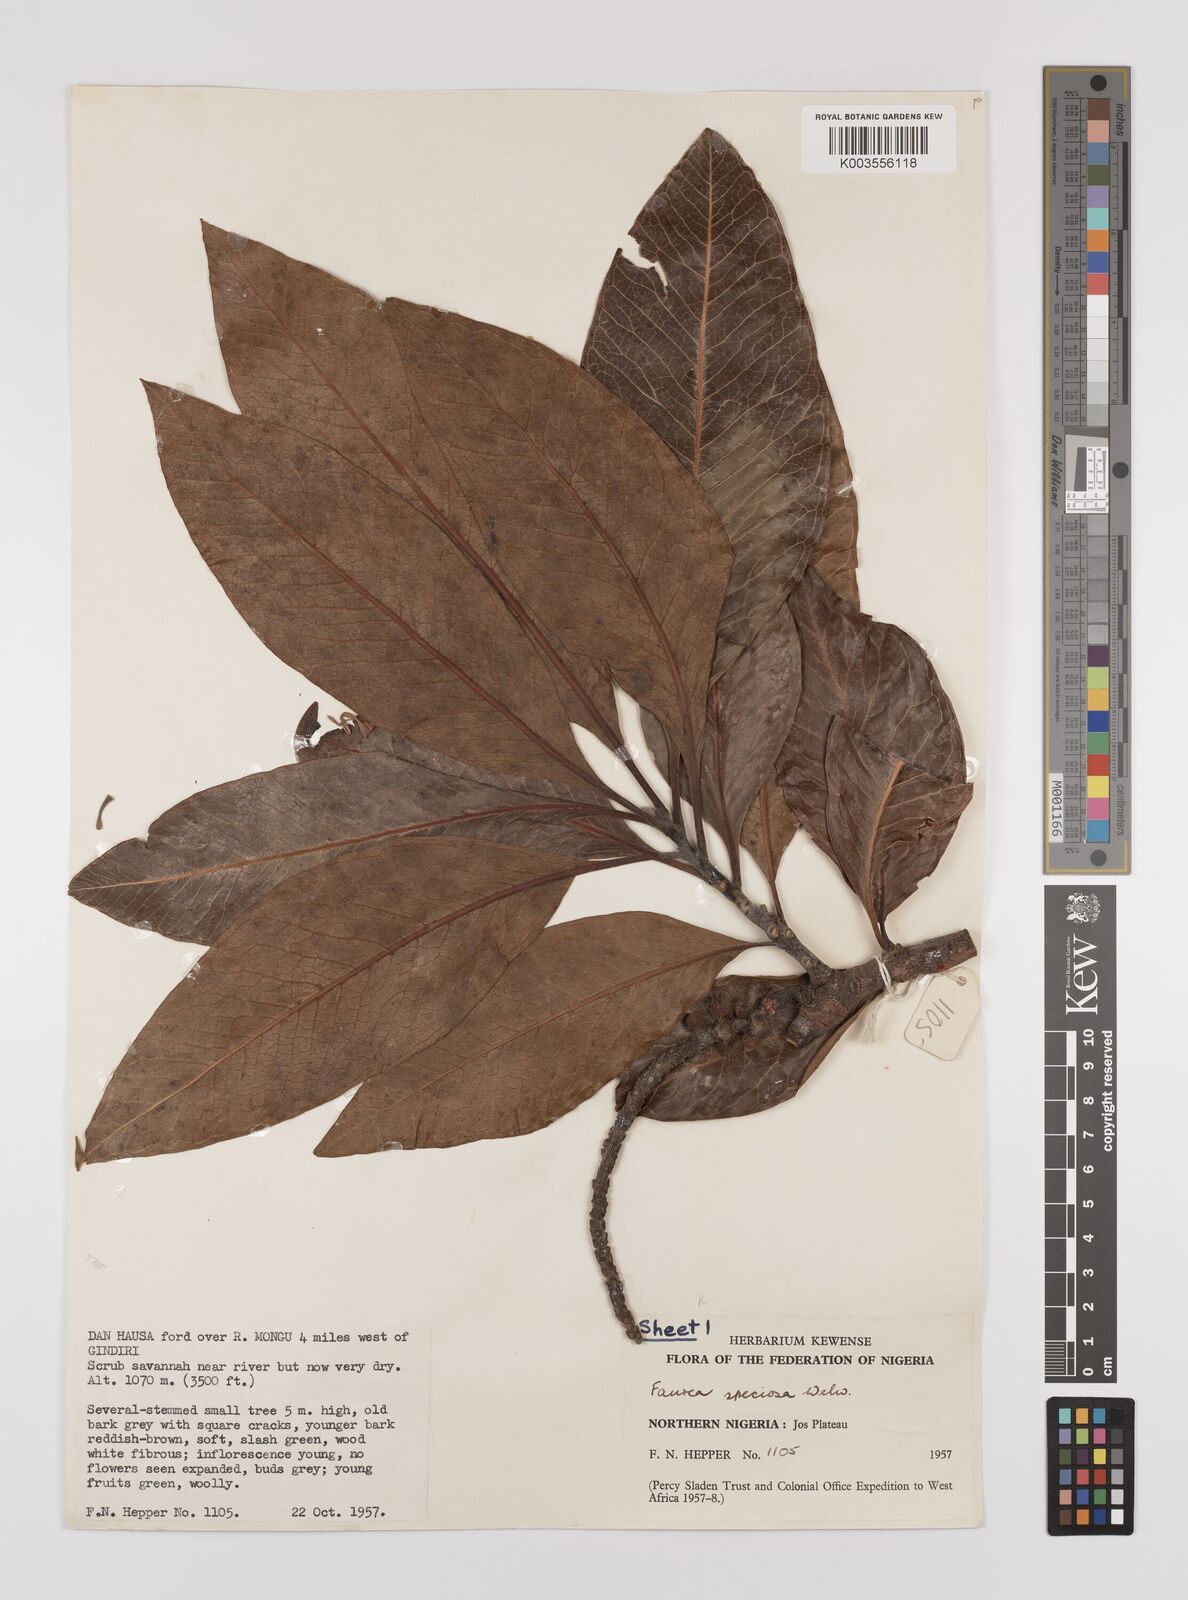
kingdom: Plantae
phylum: Tracheophyta
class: Magnoliopsida
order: Proteales
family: Proteaceae
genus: Faurea
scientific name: Faurea rochetiana
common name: Broad-leaved beech
